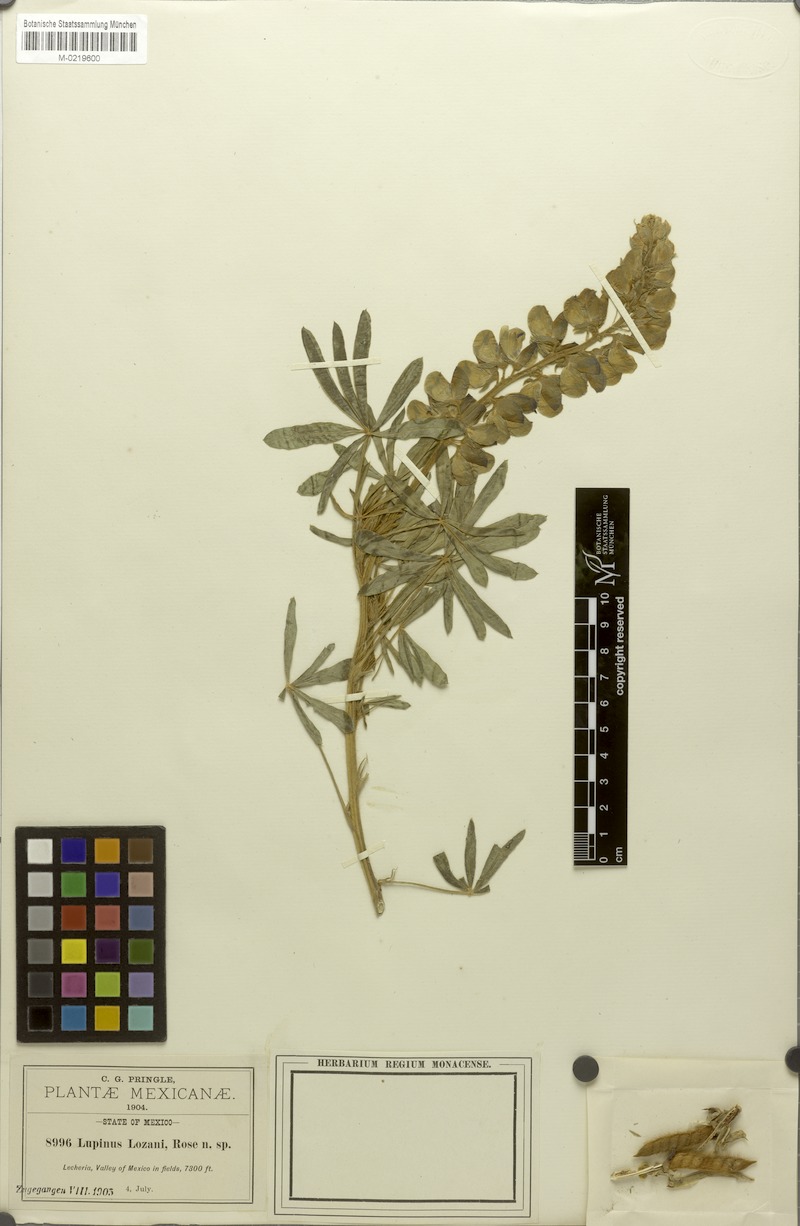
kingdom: Plantae
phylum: Tracheophyta
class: Magnoliopsida
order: Fabales
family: Fabaceae
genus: Lupinus
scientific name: Lupinus ehrenbergii
